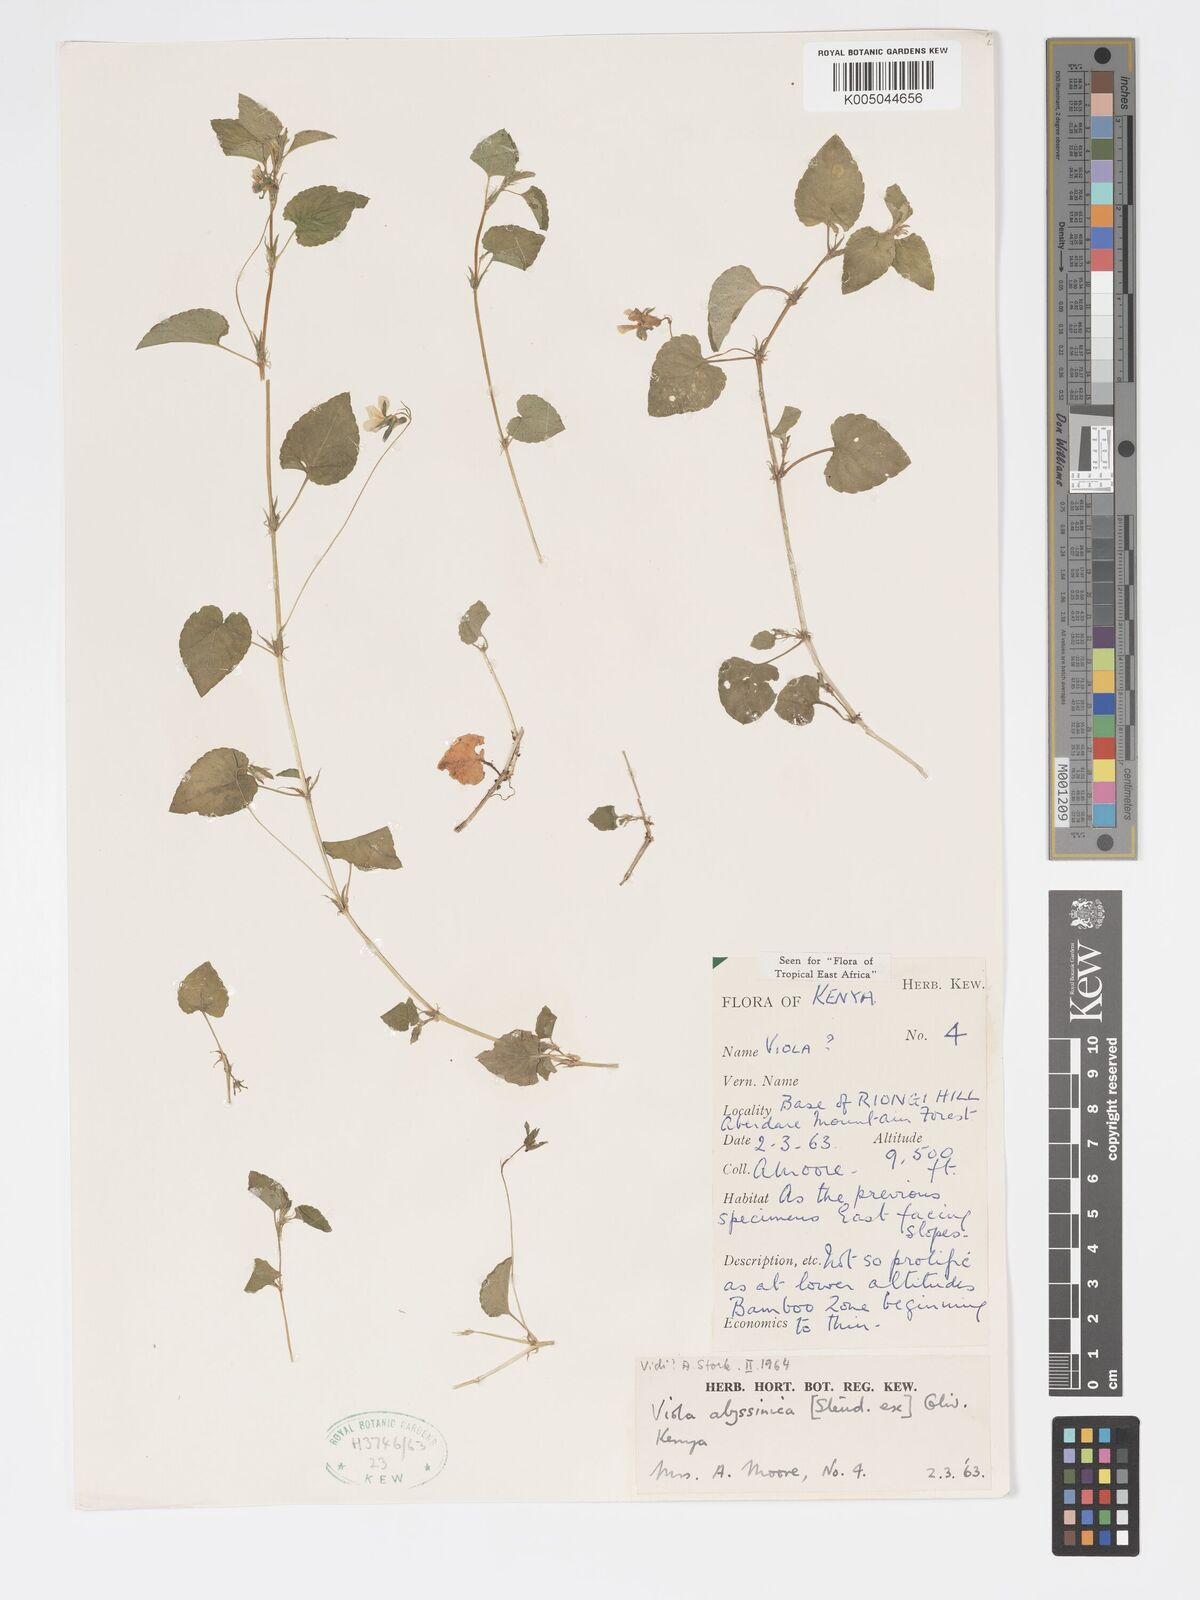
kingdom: Plantae
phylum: Tracheophyta
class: Magnoliopsida
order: Malpighiales
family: Violaceae
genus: Viola
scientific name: Viola abyssinica
